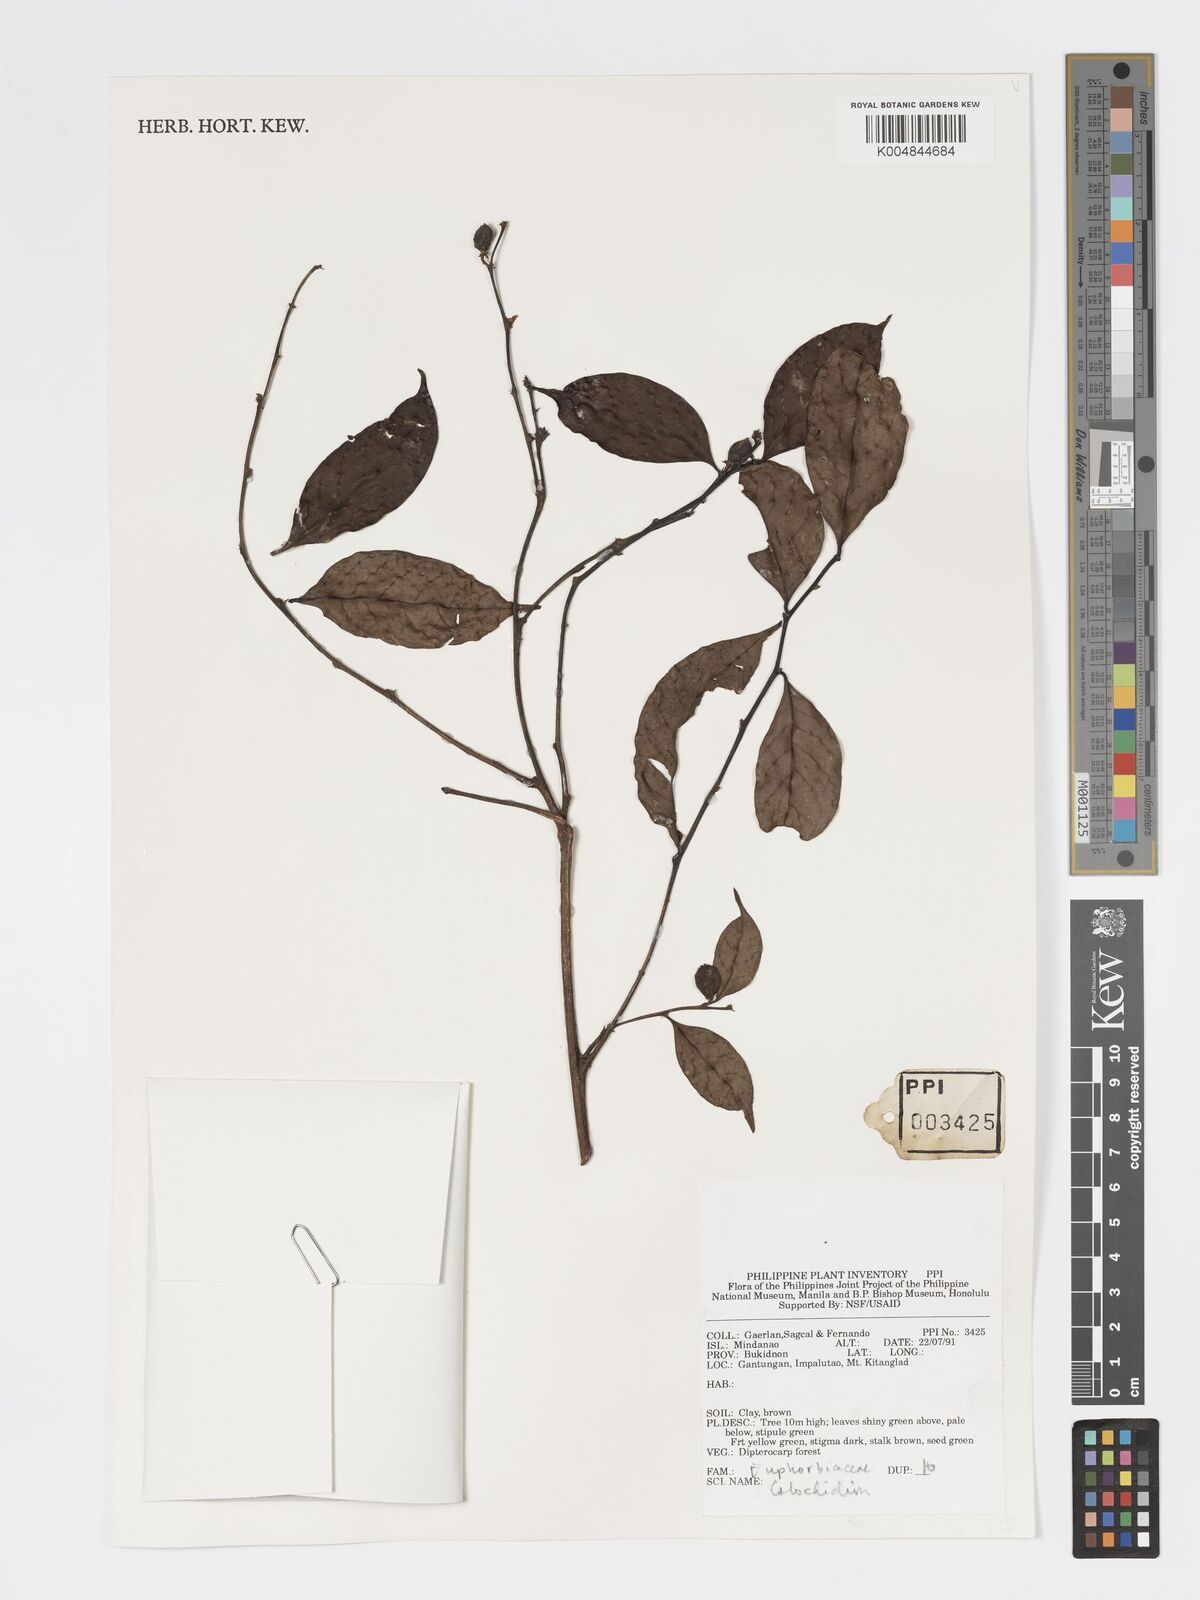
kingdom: Plantae
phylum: Tracheophyta
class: Magnoliopsida
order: Malpighiales
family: Phyllanthaceae
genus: Glochidion
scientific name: Glochidion
